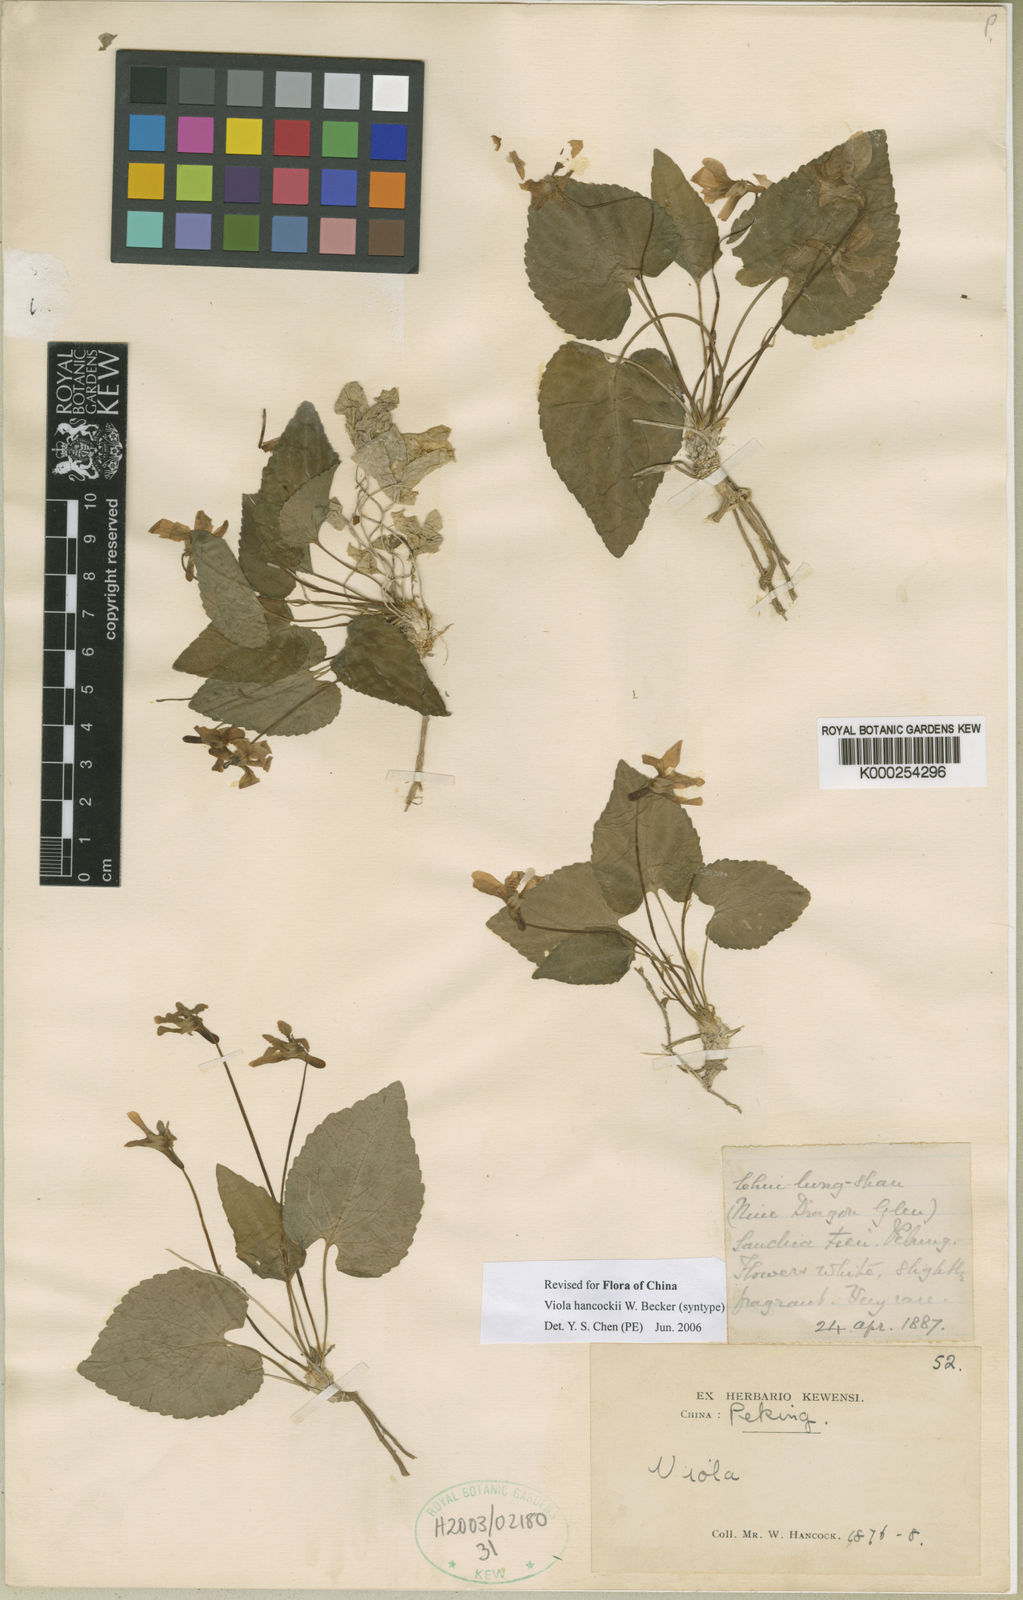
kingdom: Plantae
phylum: Tracheophyta
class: Magnoliopsida
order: Malpighiales
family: Violaceae
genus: Viola
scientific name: Viola hancockii
